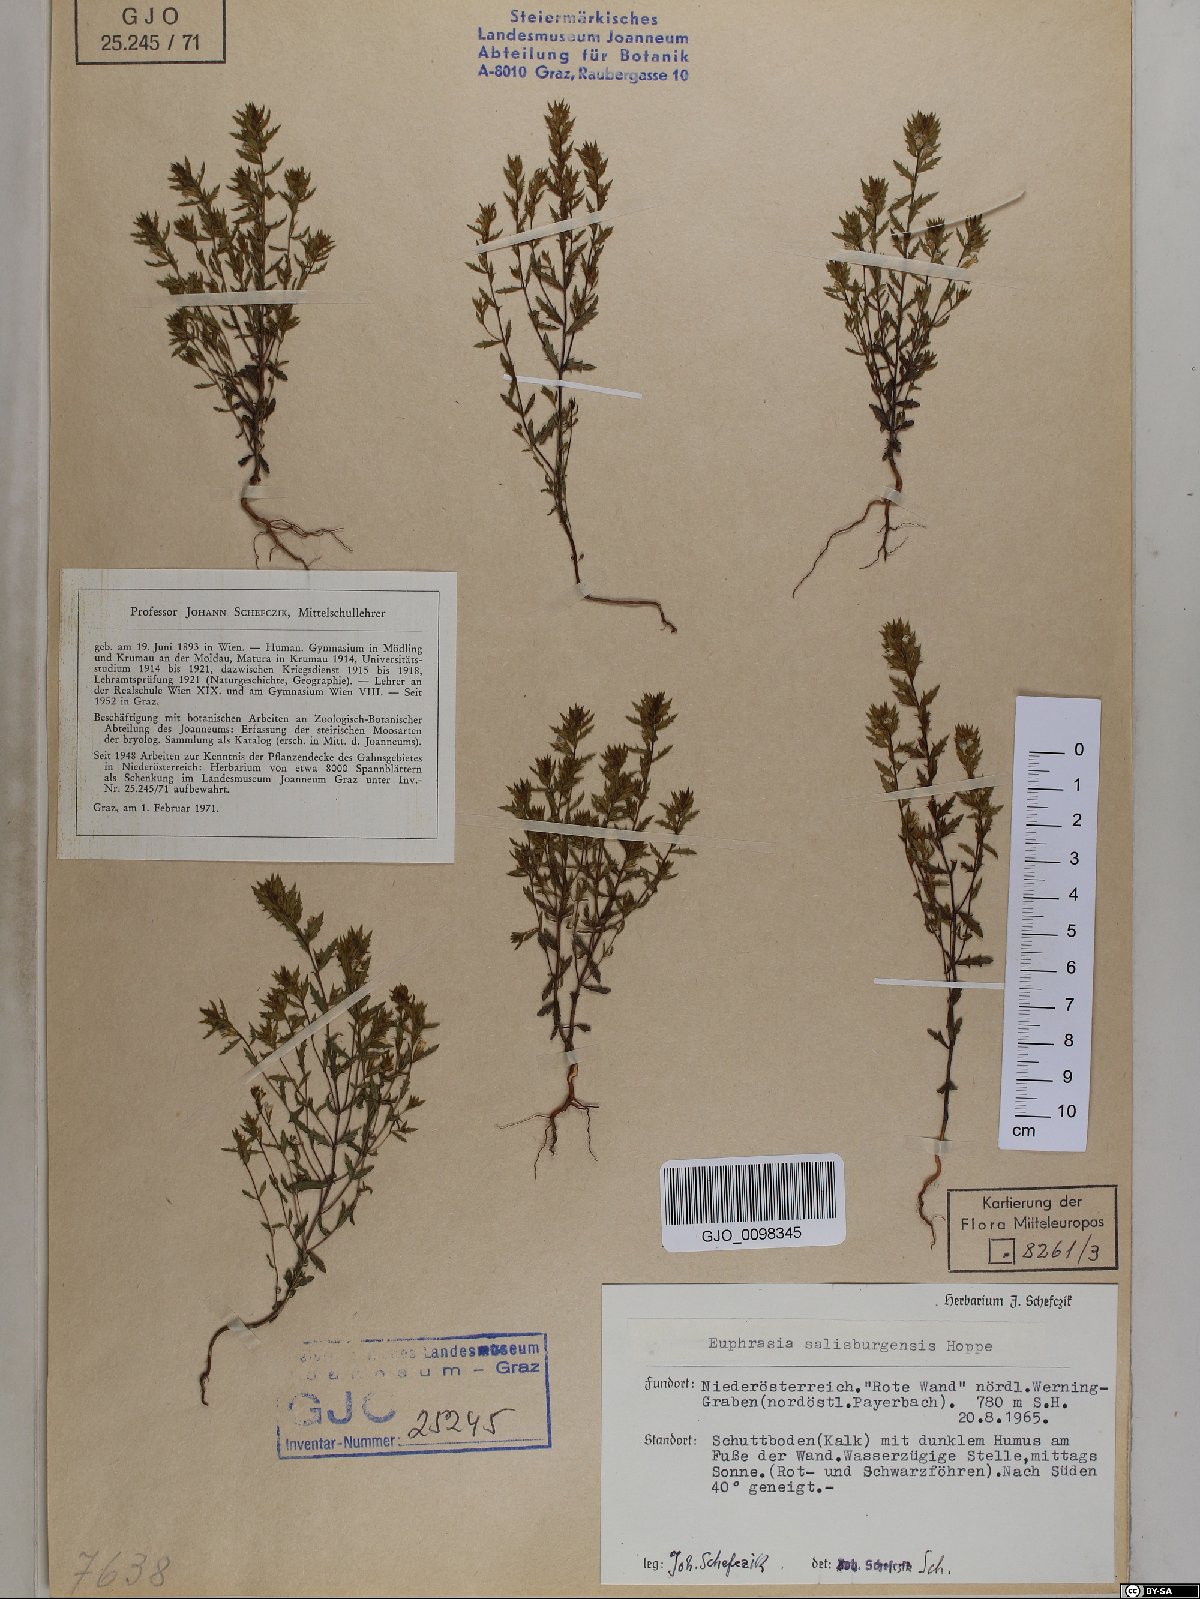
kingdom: Plantae
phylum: Tracheophyta
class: Magnoliopsida
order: Lamiales
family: Orobanchaceae
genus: Euphrasia
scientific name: Euphrasia salisburgensis
